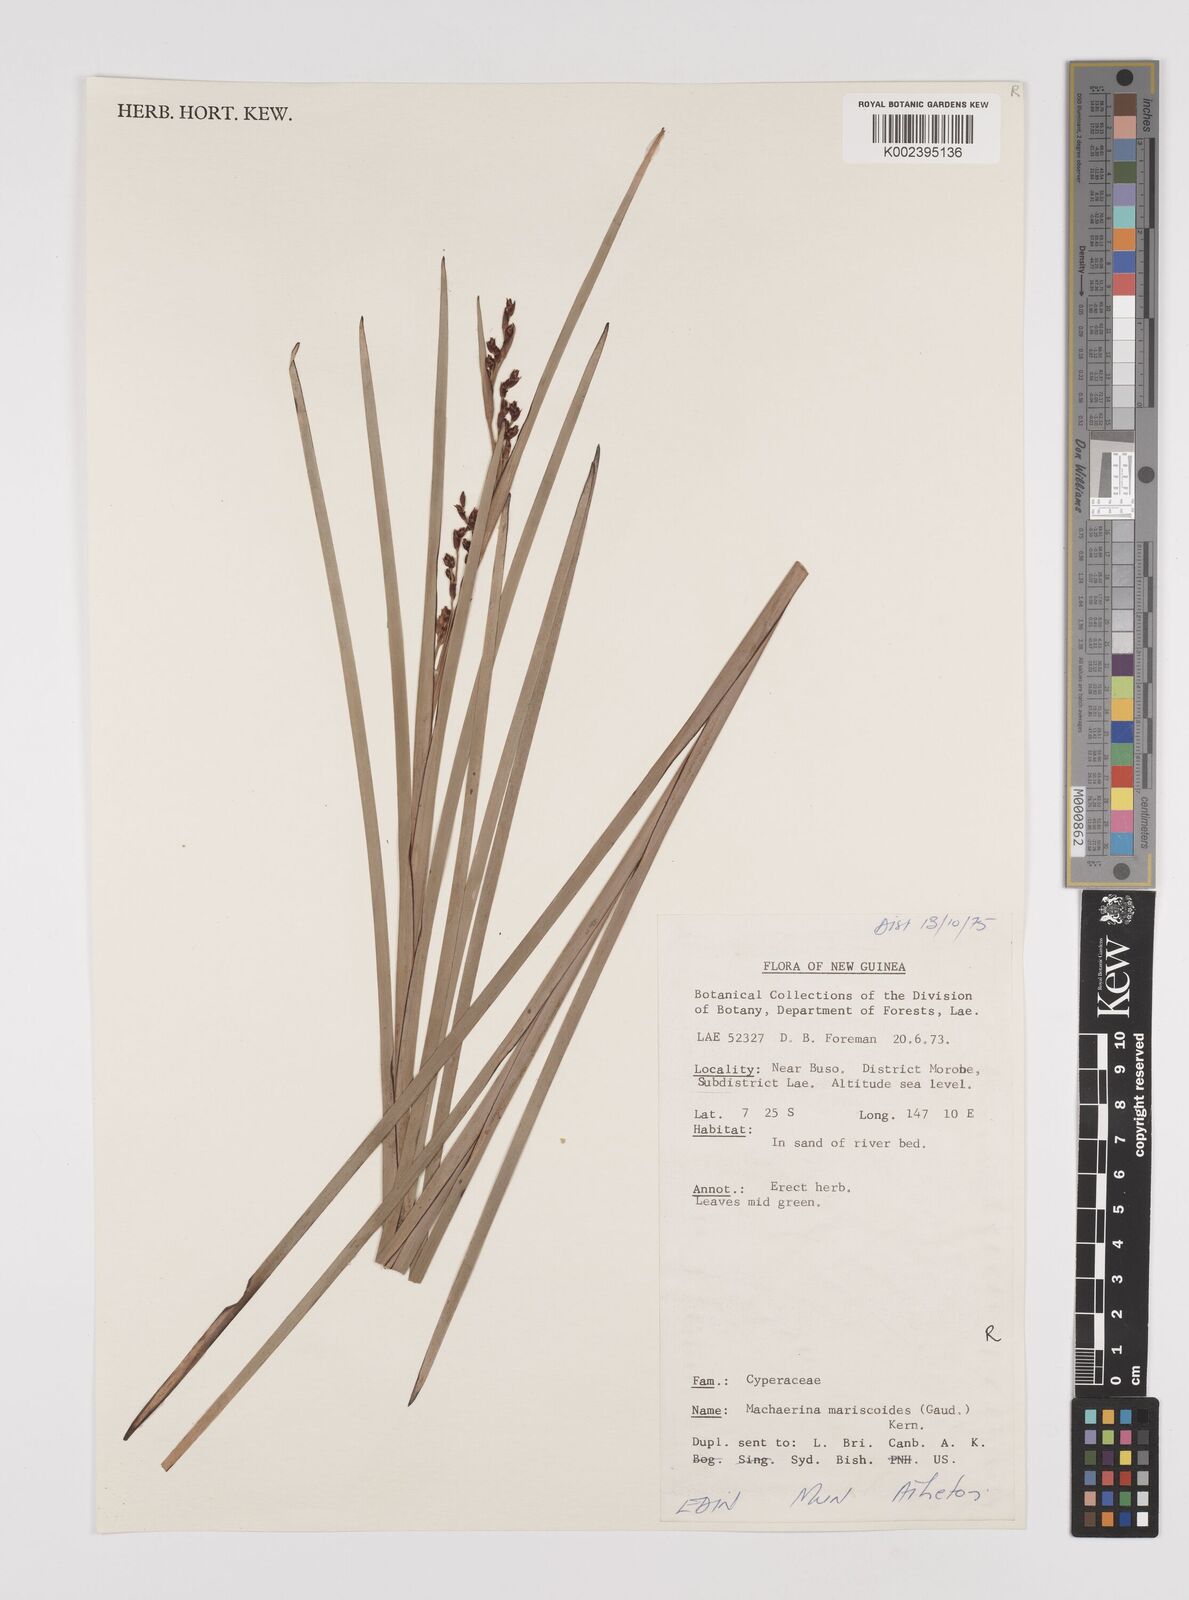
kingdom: Plantae
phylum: Tracheophyta
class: Liliopsida
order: Poales
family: Cyperaceae
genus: Machaerina
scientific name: Machaerina mariscoides
